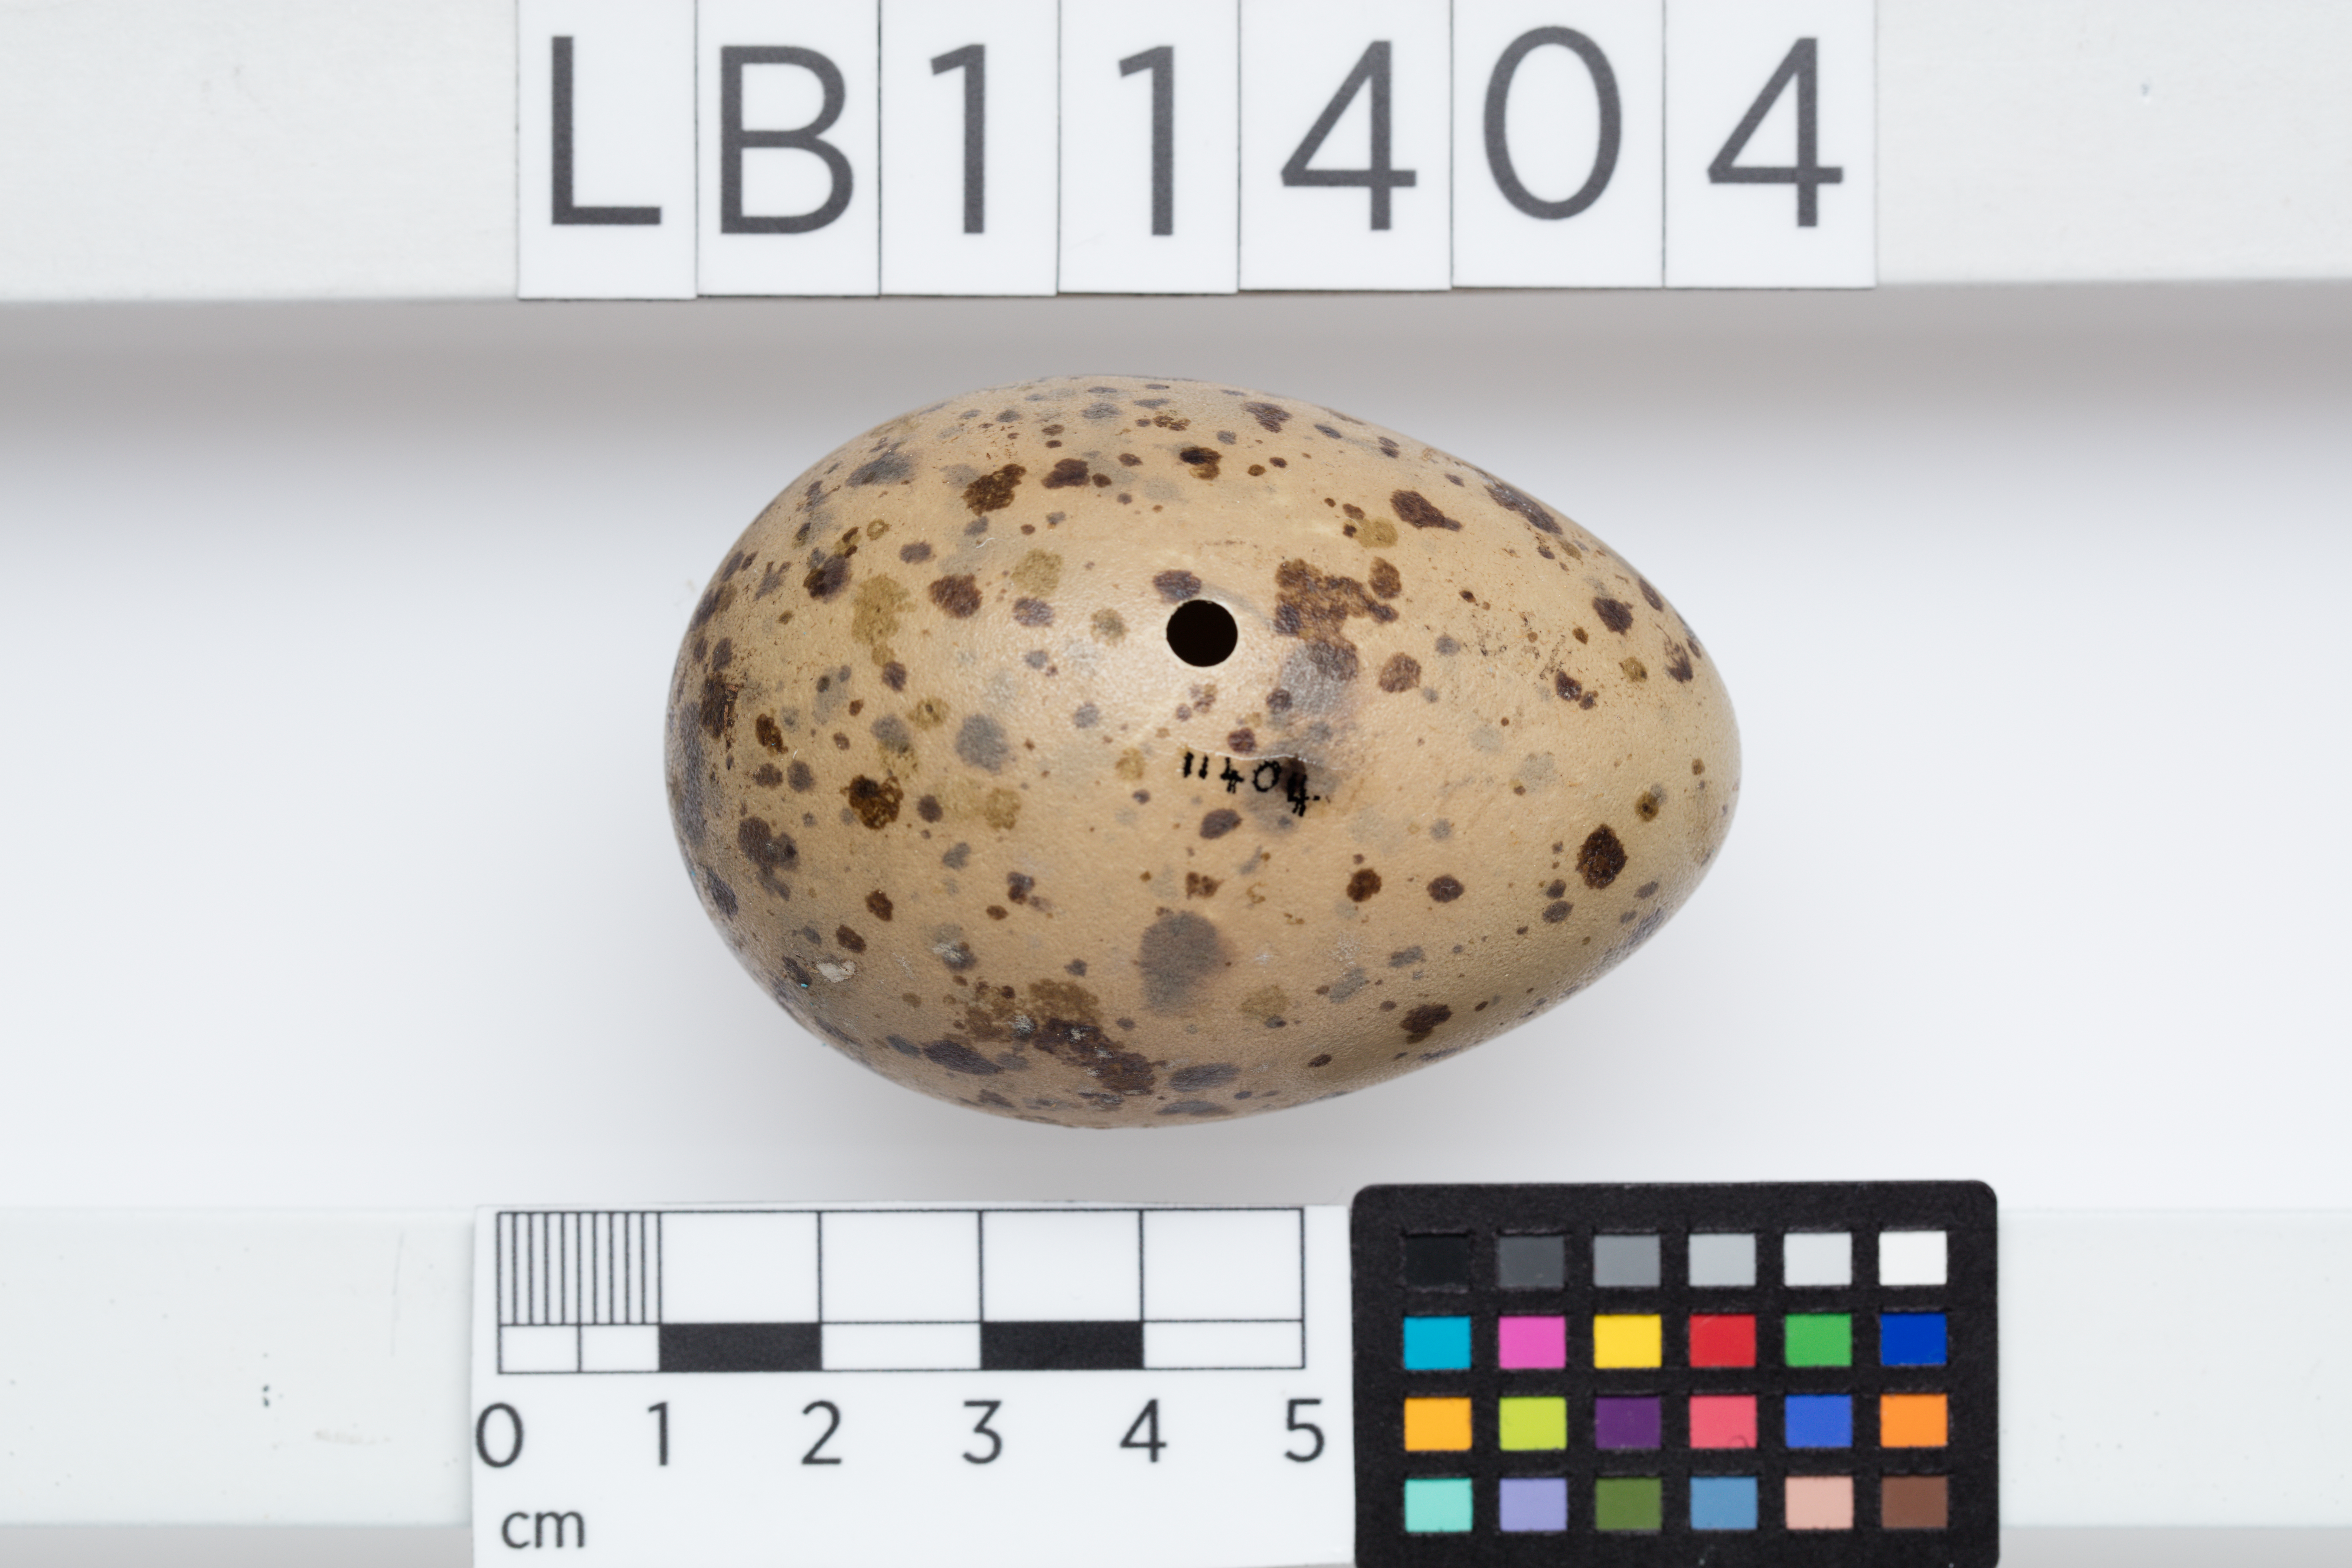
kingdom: Animalia
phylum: Chordata
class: Aves
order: Charadriiformes
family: Laridae
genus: Larus
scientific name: Larus fuscus
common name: Lesser black-backed gull
